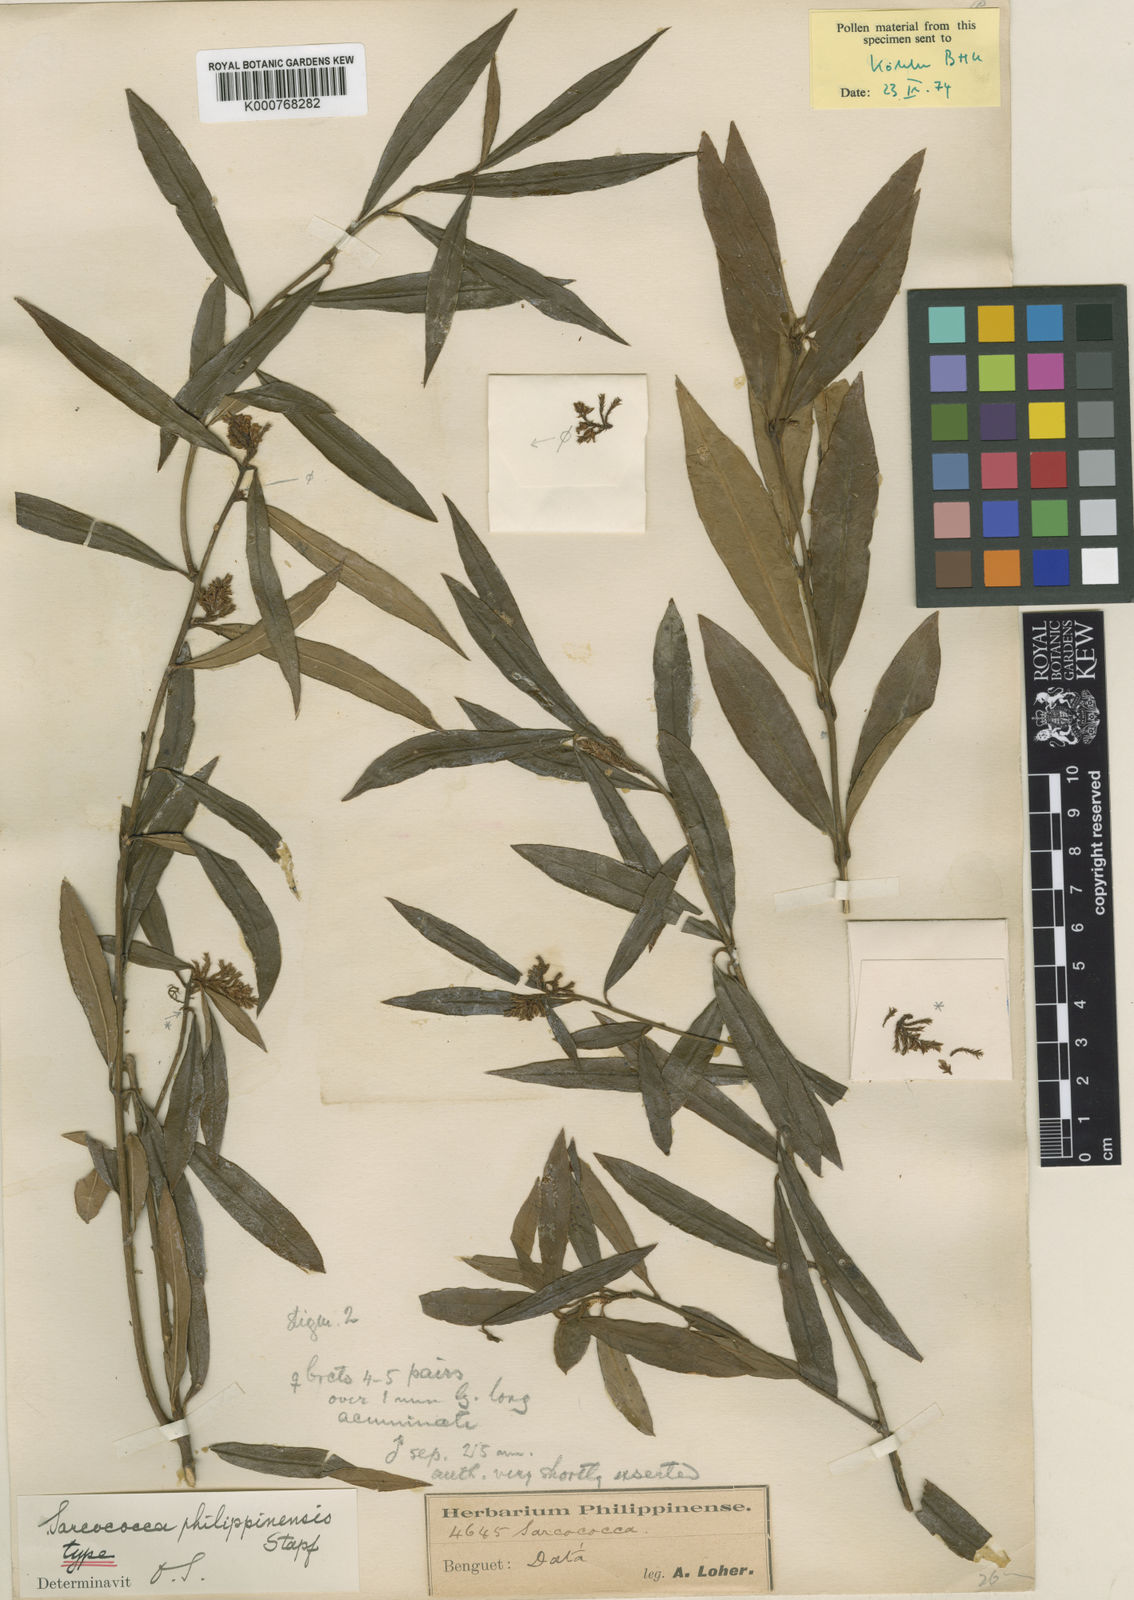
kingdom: Plantae
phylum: Tracheophyta
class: Magnoliopsida
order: Buxales
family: Buxaceae
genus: Sarcococca
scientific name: Sarcococca saligna
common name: Willow-leaf sweet-box
